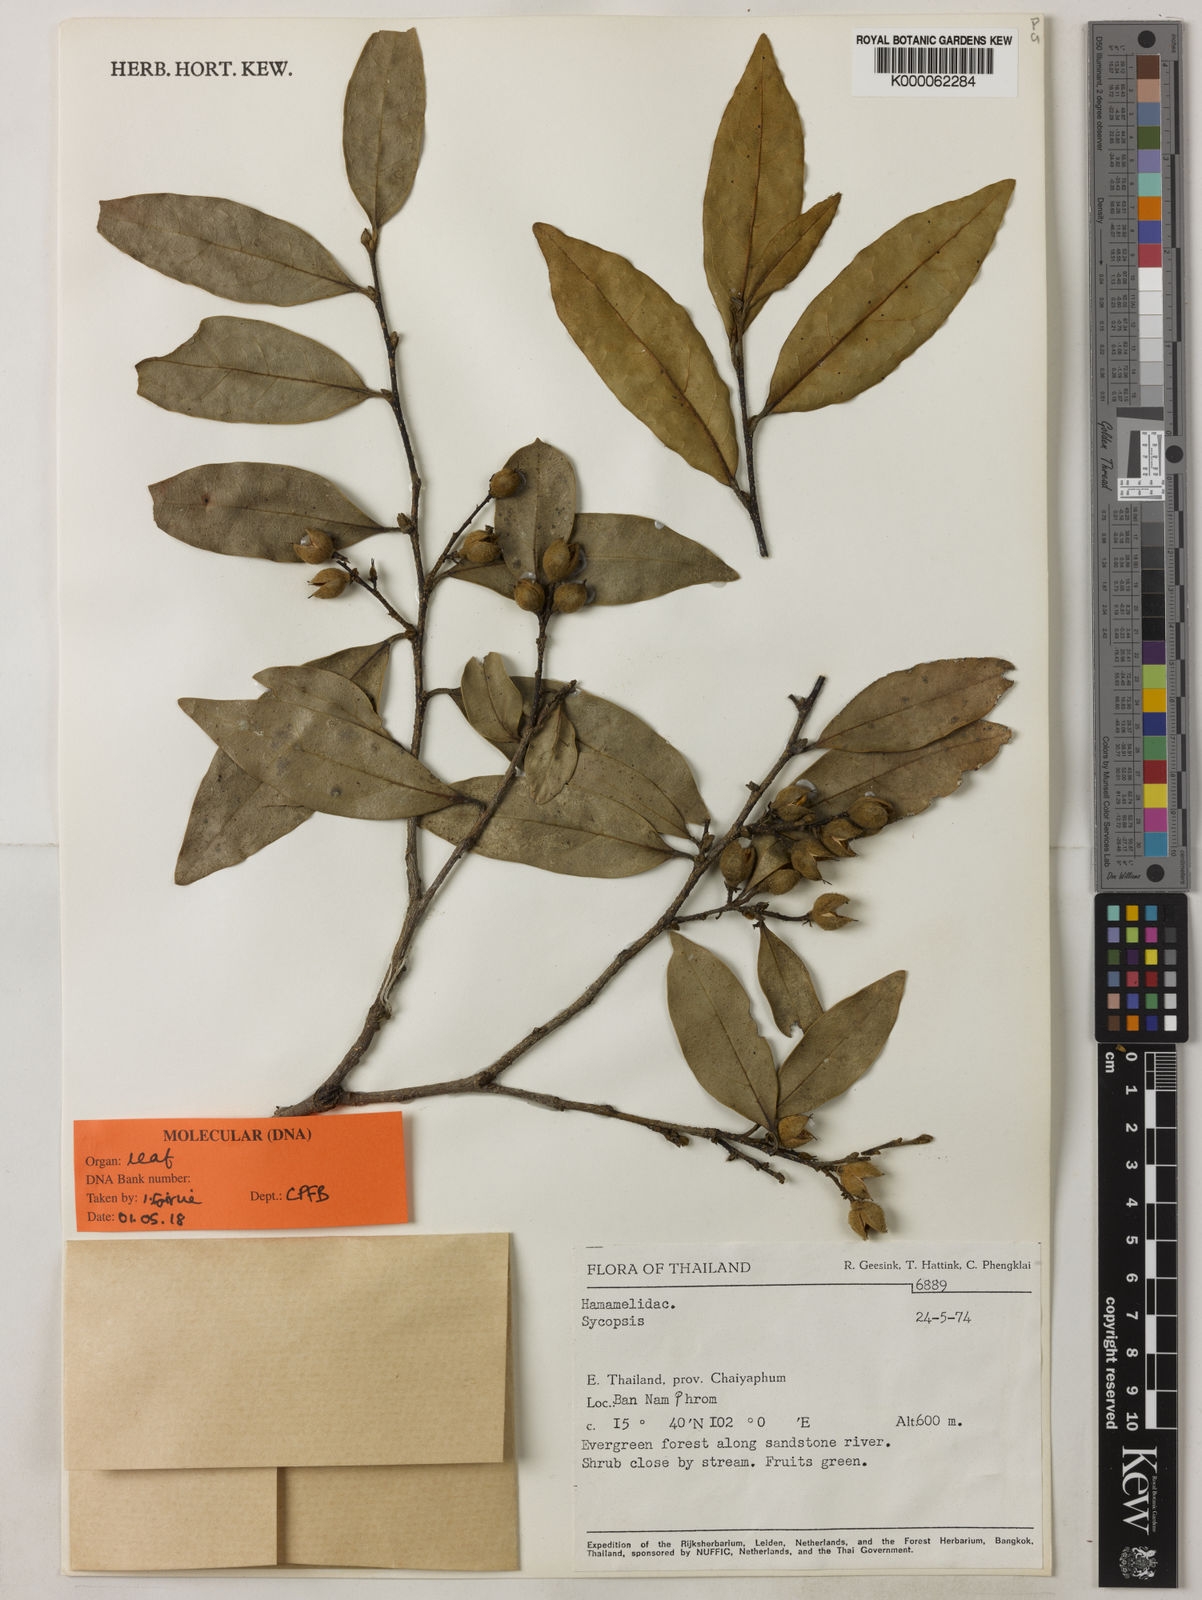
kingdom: Plantae
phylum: Tracheophyta
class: Magnoliopsida
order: Saxifragales
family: Hamamelidaceae
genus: Distyliopsis
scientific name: Distyliopsis dunnii
